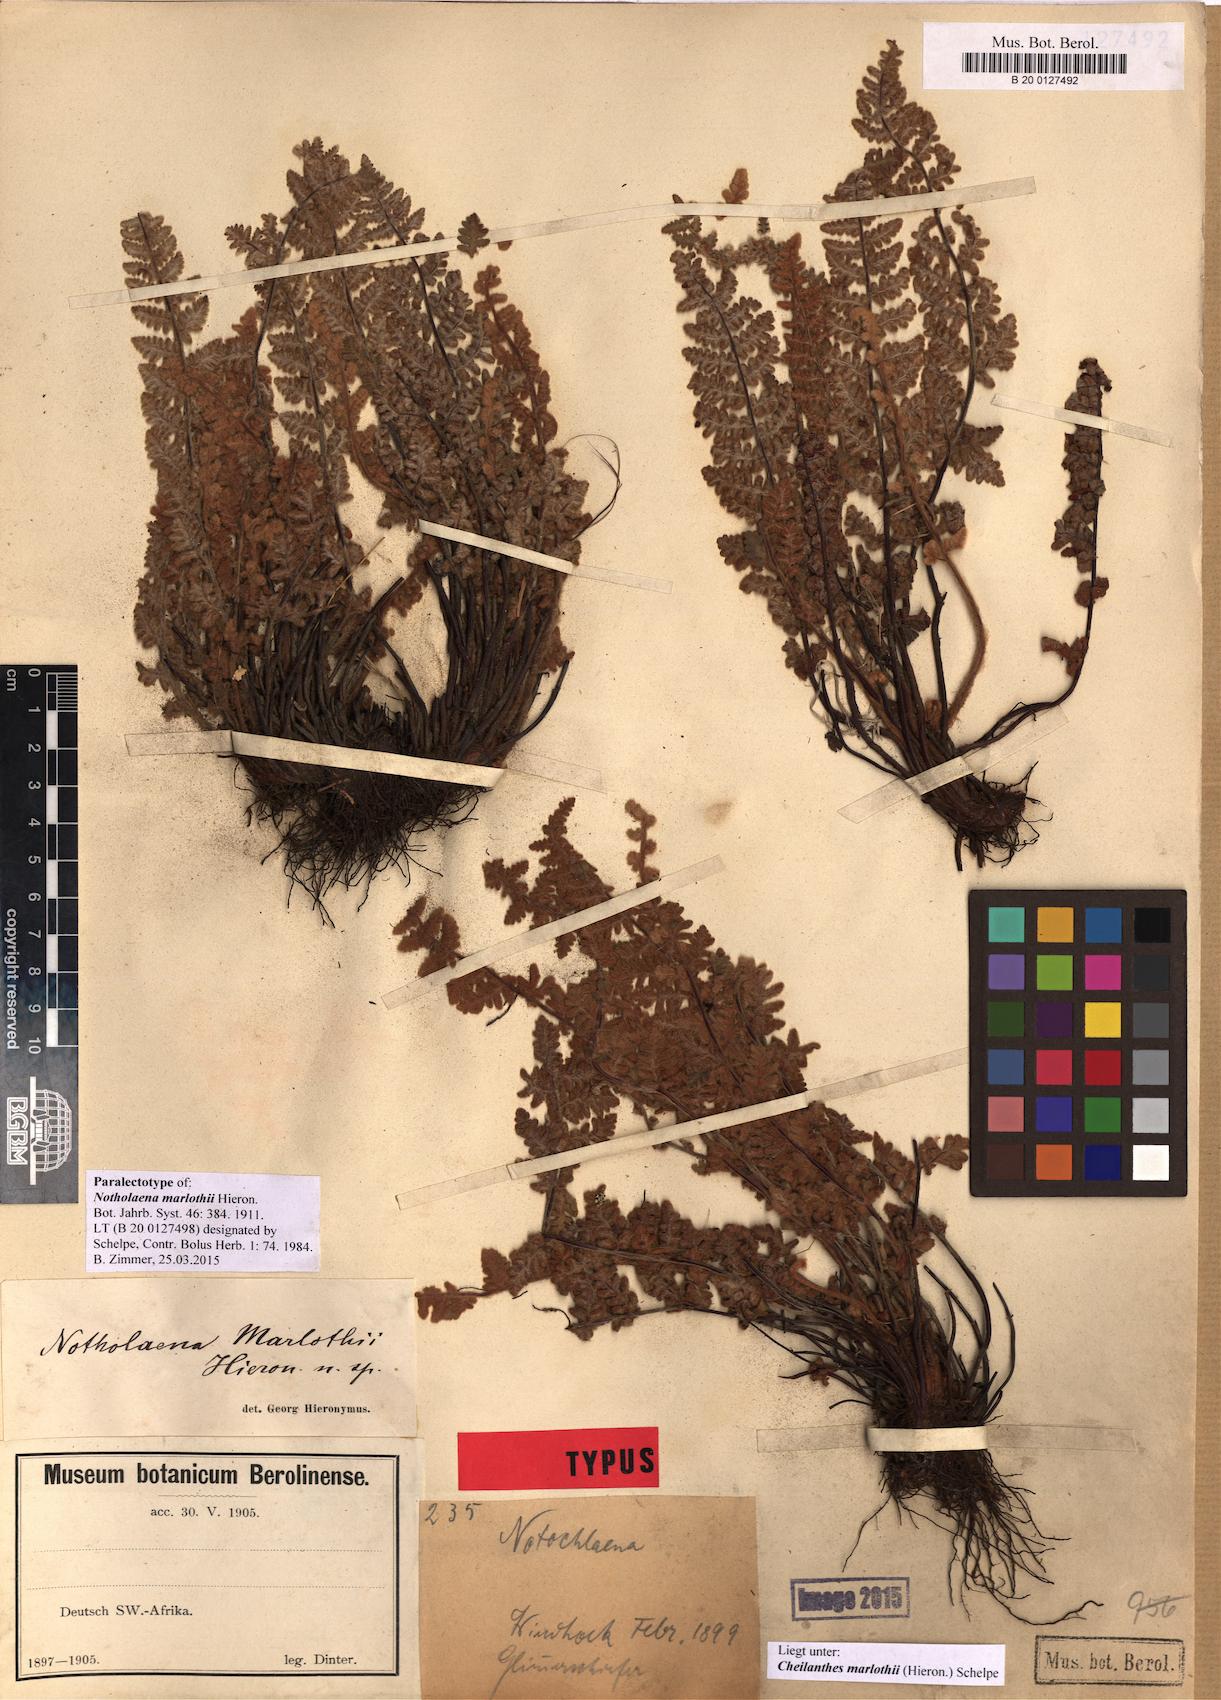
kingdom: Plantae
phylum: Tracheophyta
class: Polypodiopsida
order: Polypodiales
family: Pteridaceae
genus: Cheilanthes
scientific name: Cheilanthes marlothii
